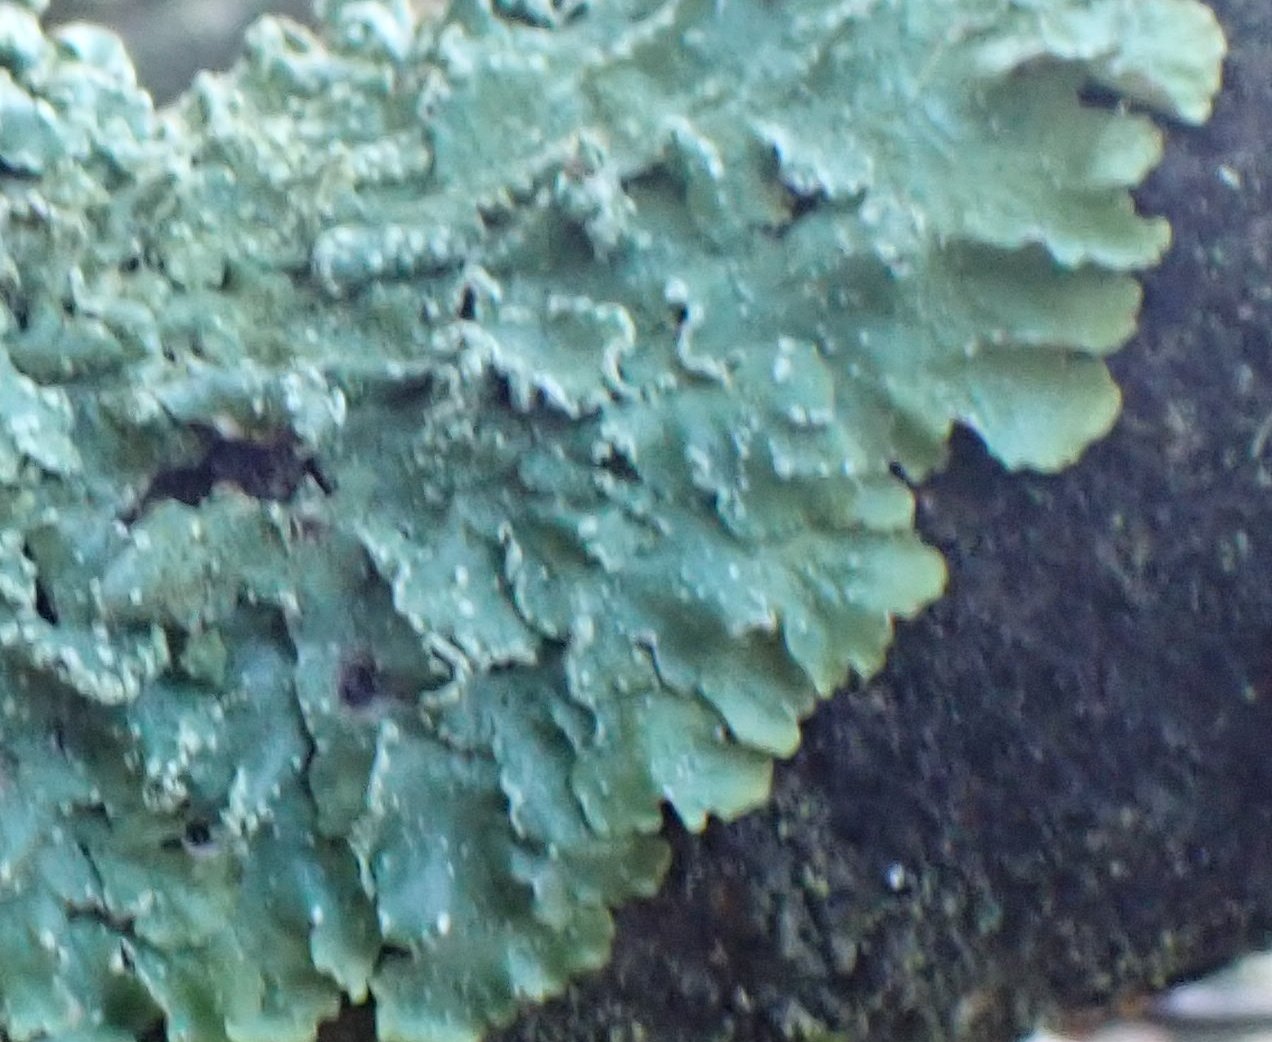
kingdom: Fungi
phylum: Ascomycota
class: Lecanoromycetes
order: Lecanorales
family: Parmeliaceae
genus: Punctelia
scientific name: Punctelia subrudecta
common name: punkt-skållav
